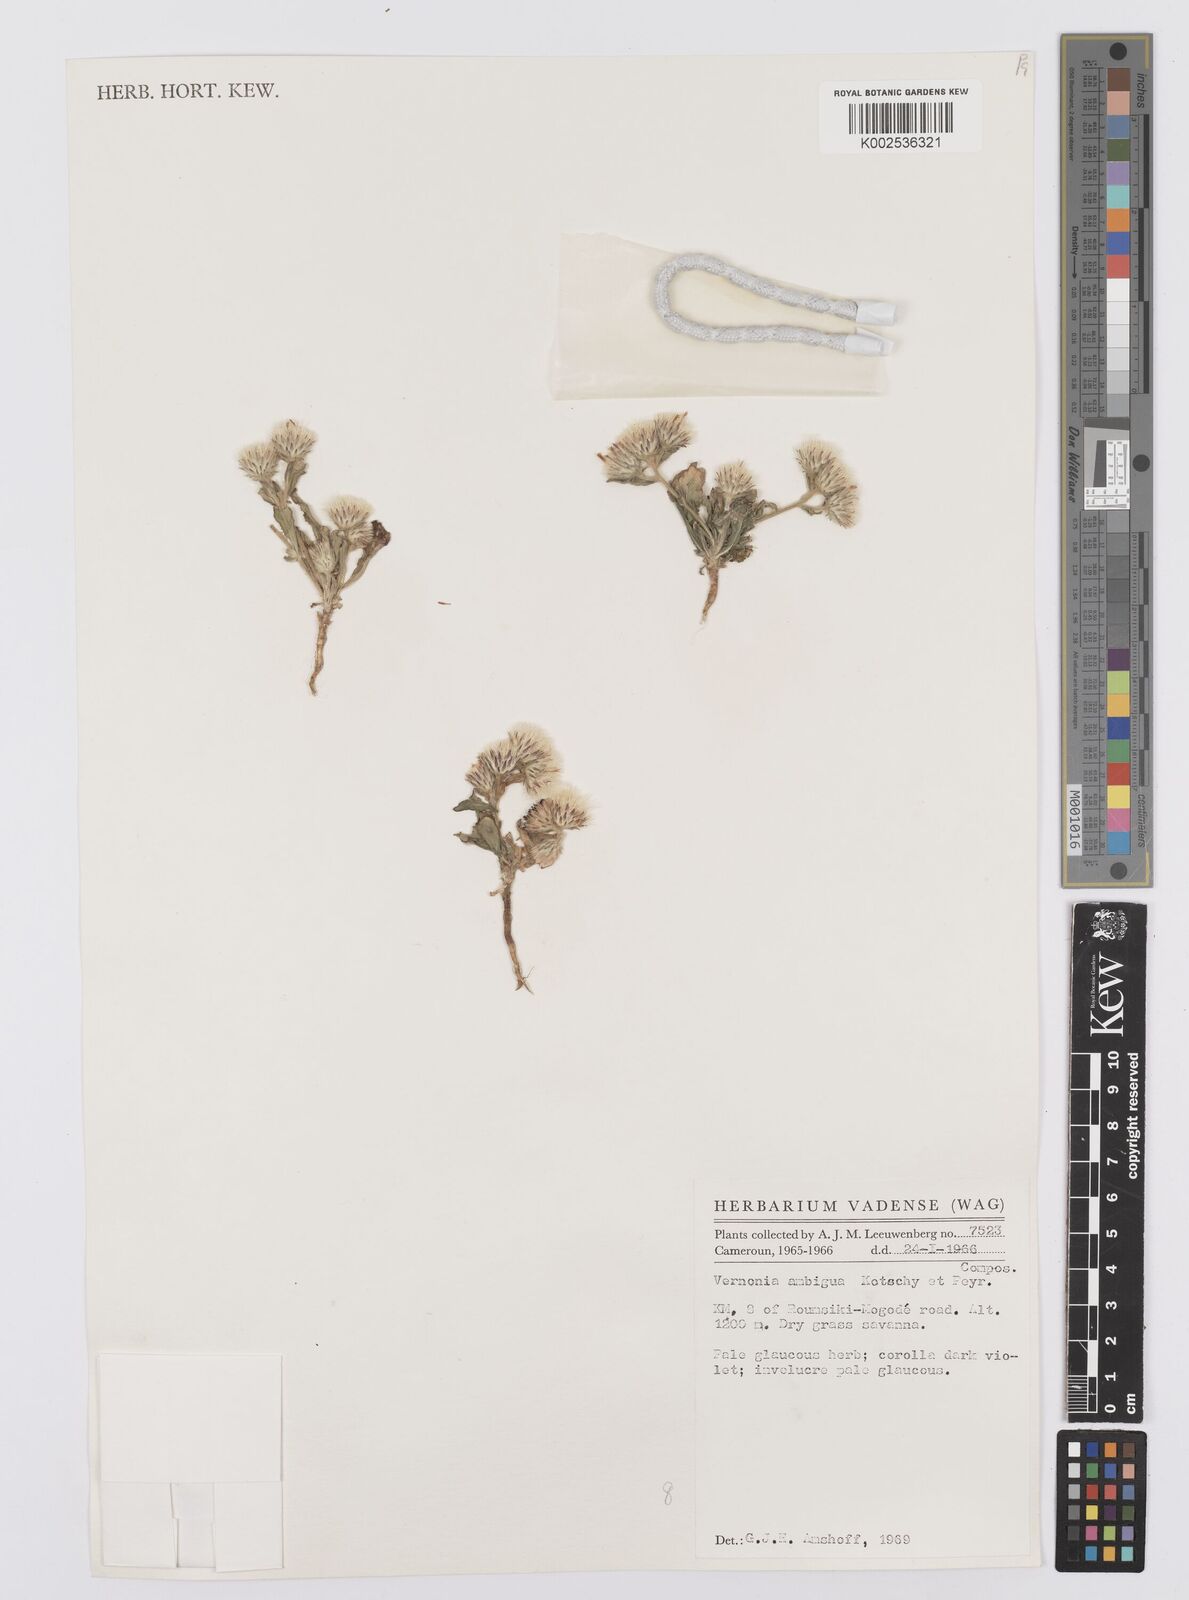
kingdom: Plantae
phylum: Tracheophyta
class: Magnoliopsida
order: Asterales
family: Asteraceae
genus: Vernoniastrum
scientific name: Vernoniastrum ambiguum
